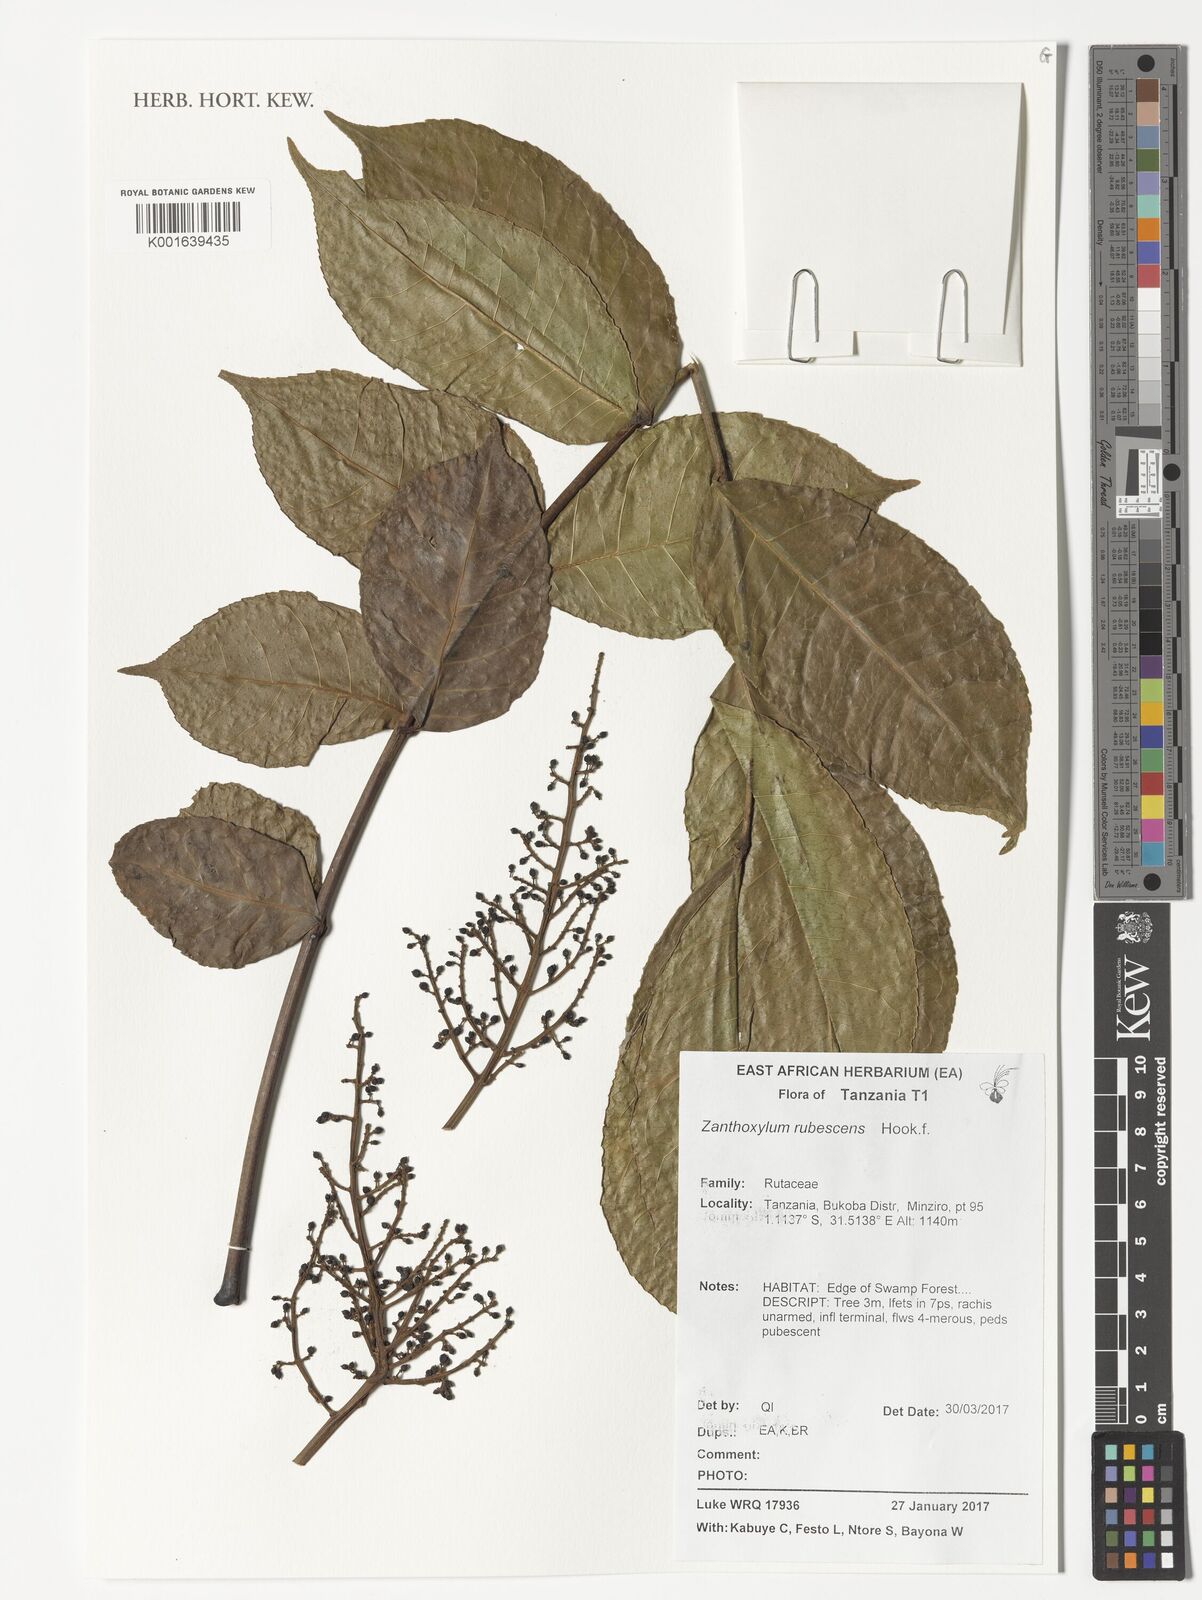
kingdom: Plantae
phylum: Tracheophyta
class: Magnoliopsida
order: Sapindales
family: Rutaceae
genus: Zanthoxylum
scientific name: Zanthoxylum rubescens
